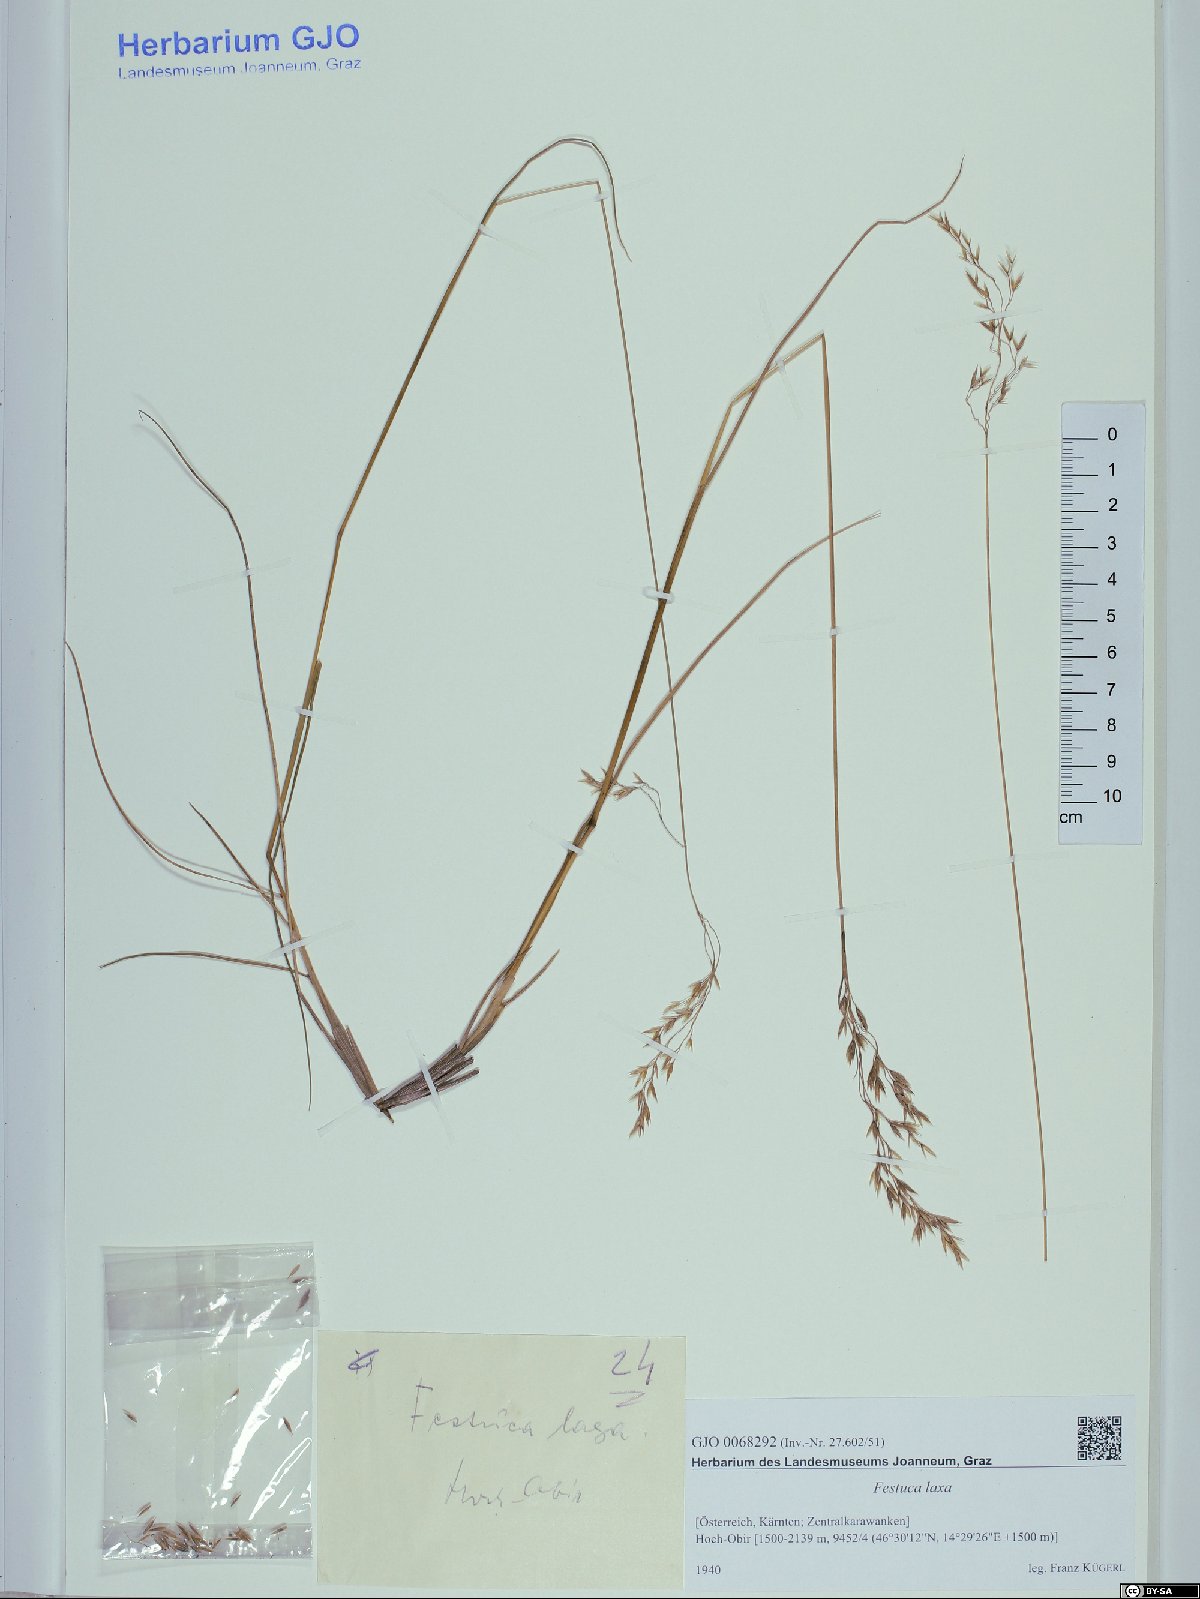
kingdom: Plantae
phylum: Tracheophyta
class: Liliopsida
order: Poales
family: Poaceae
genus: Festuca
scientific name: Festuca laxa
